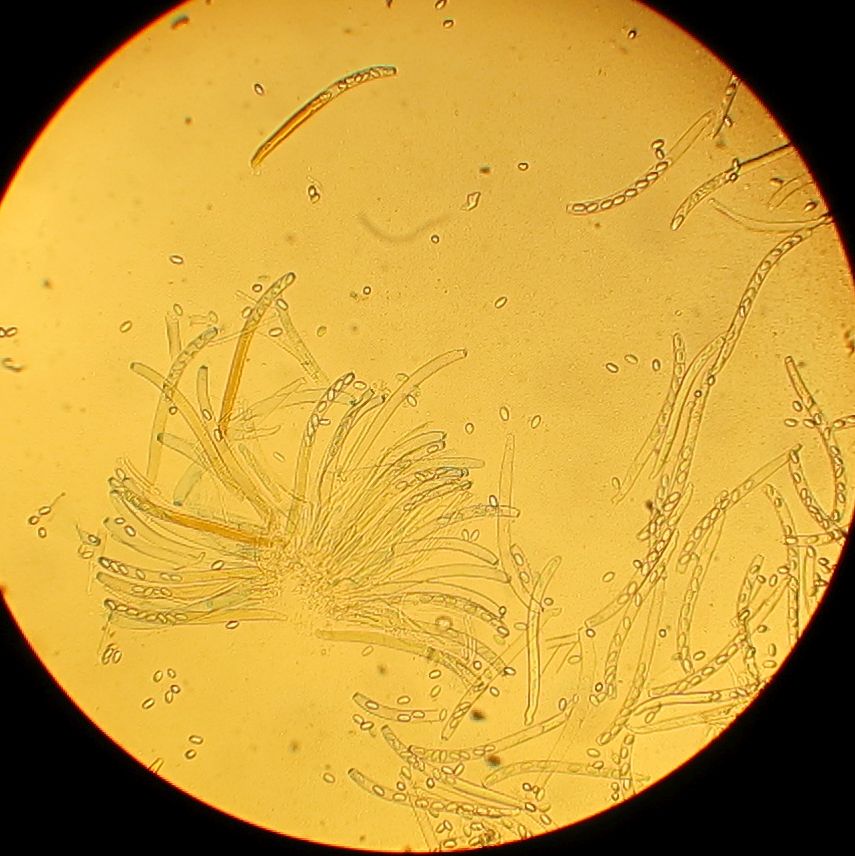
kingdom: Fungi
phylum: Ascomycota
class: Pezizomycetes
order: Pezizales
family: Pezizaceae
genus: Peziza
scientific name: Peziza vesiculosa
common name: blære-bægersvamp
